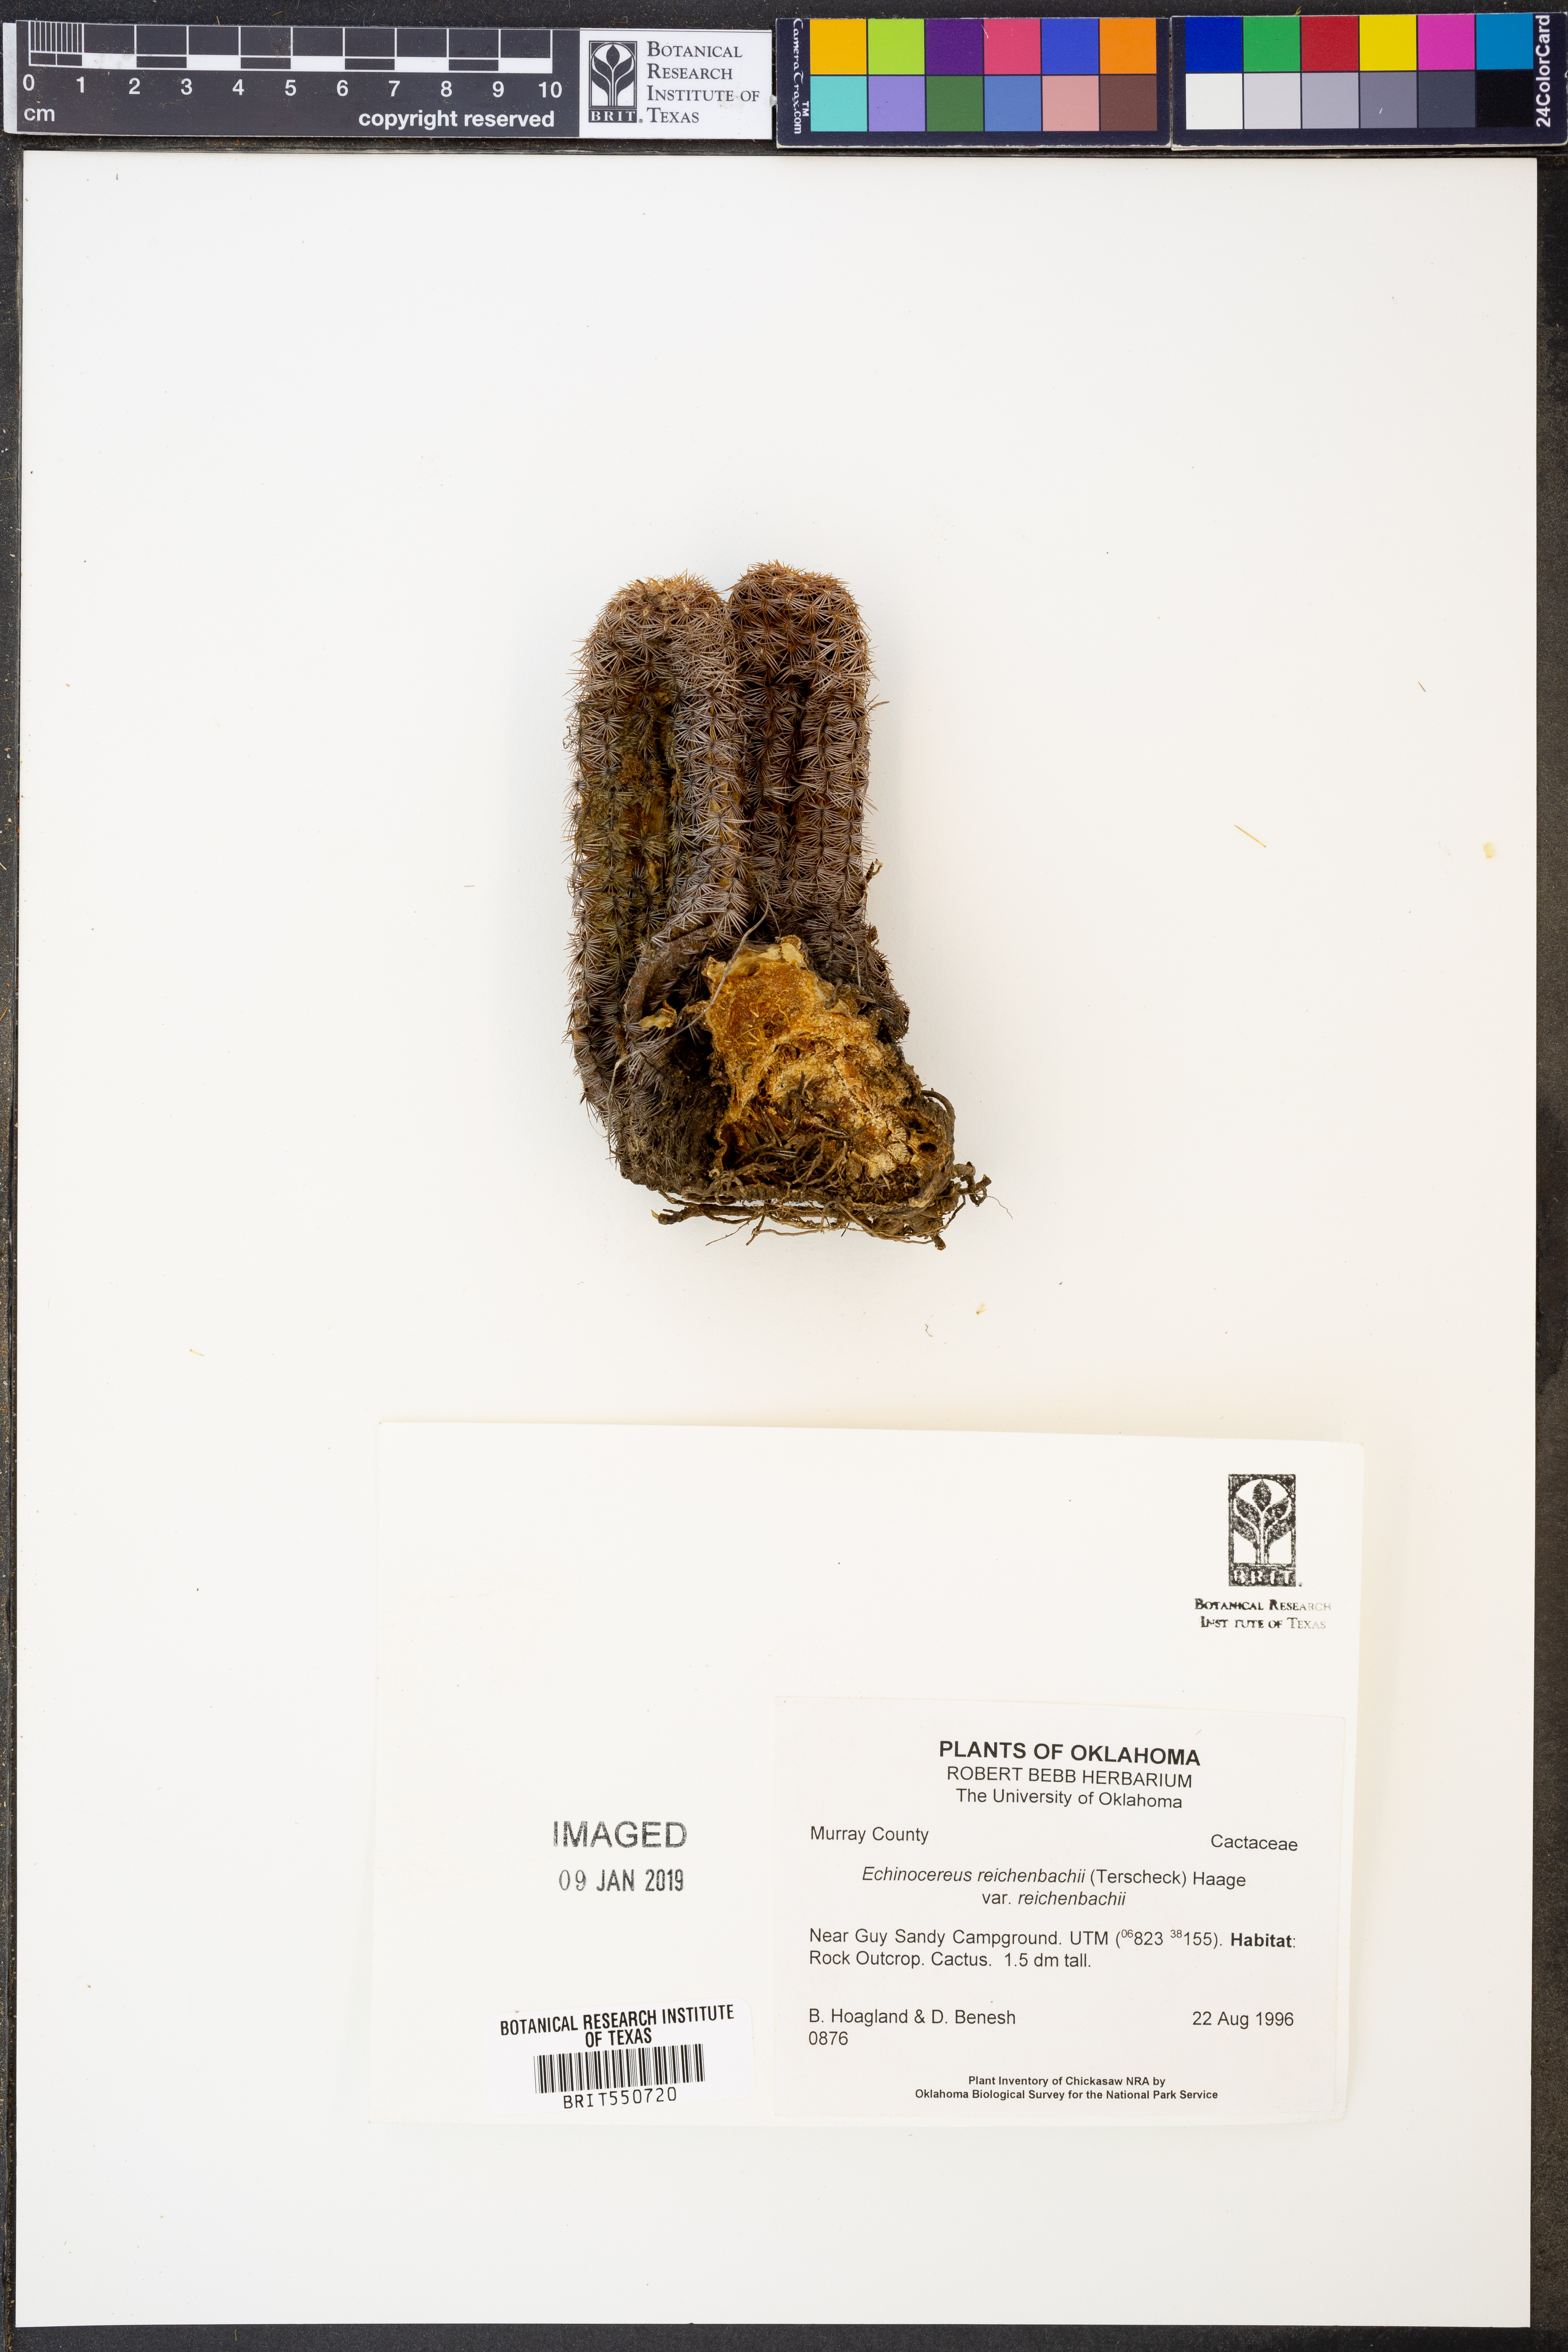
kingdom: Plantae
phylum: Tracheophyta
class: Magnoliopsida
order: Caryophyllales
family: Cactaceae
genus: Echinocereus
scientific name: Echinocereus reichenbachii
